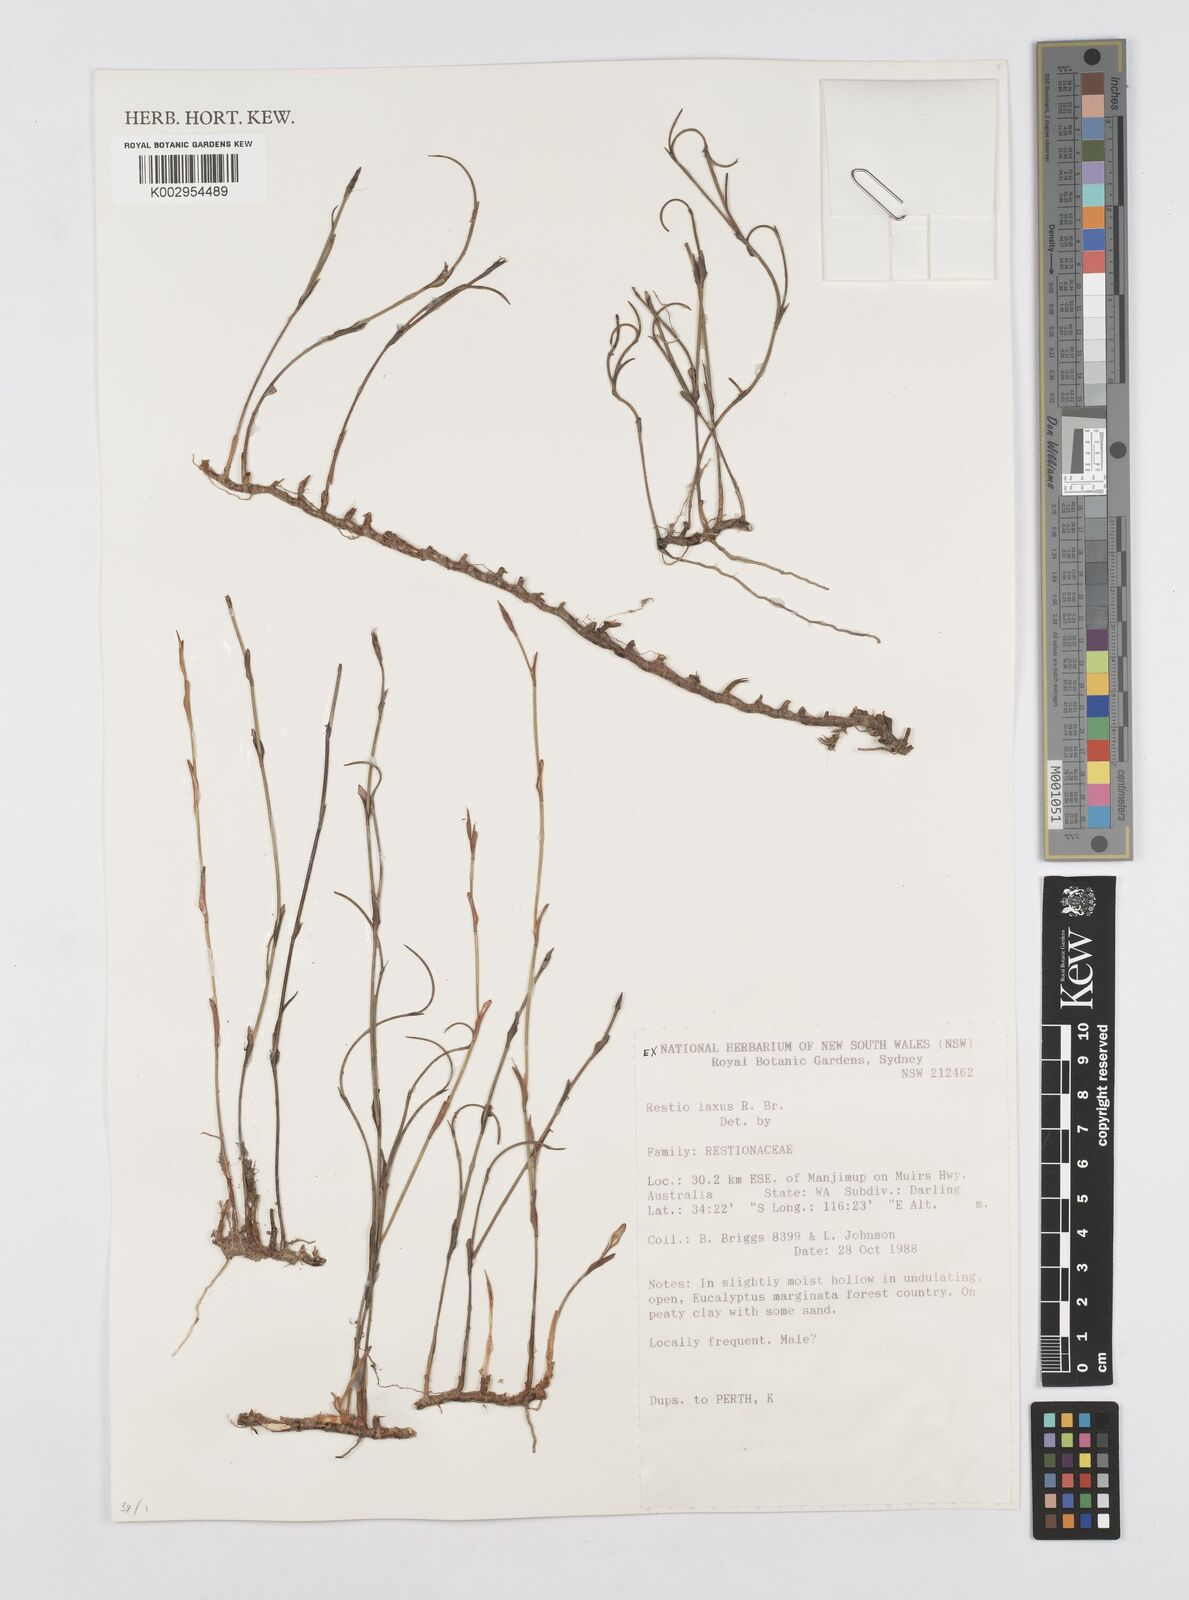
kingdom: Plantae
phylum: Tracheophyta
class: Liliopsida
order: Poales
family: Restionaceae
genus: Chordifex
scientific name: Chordifex laxus
